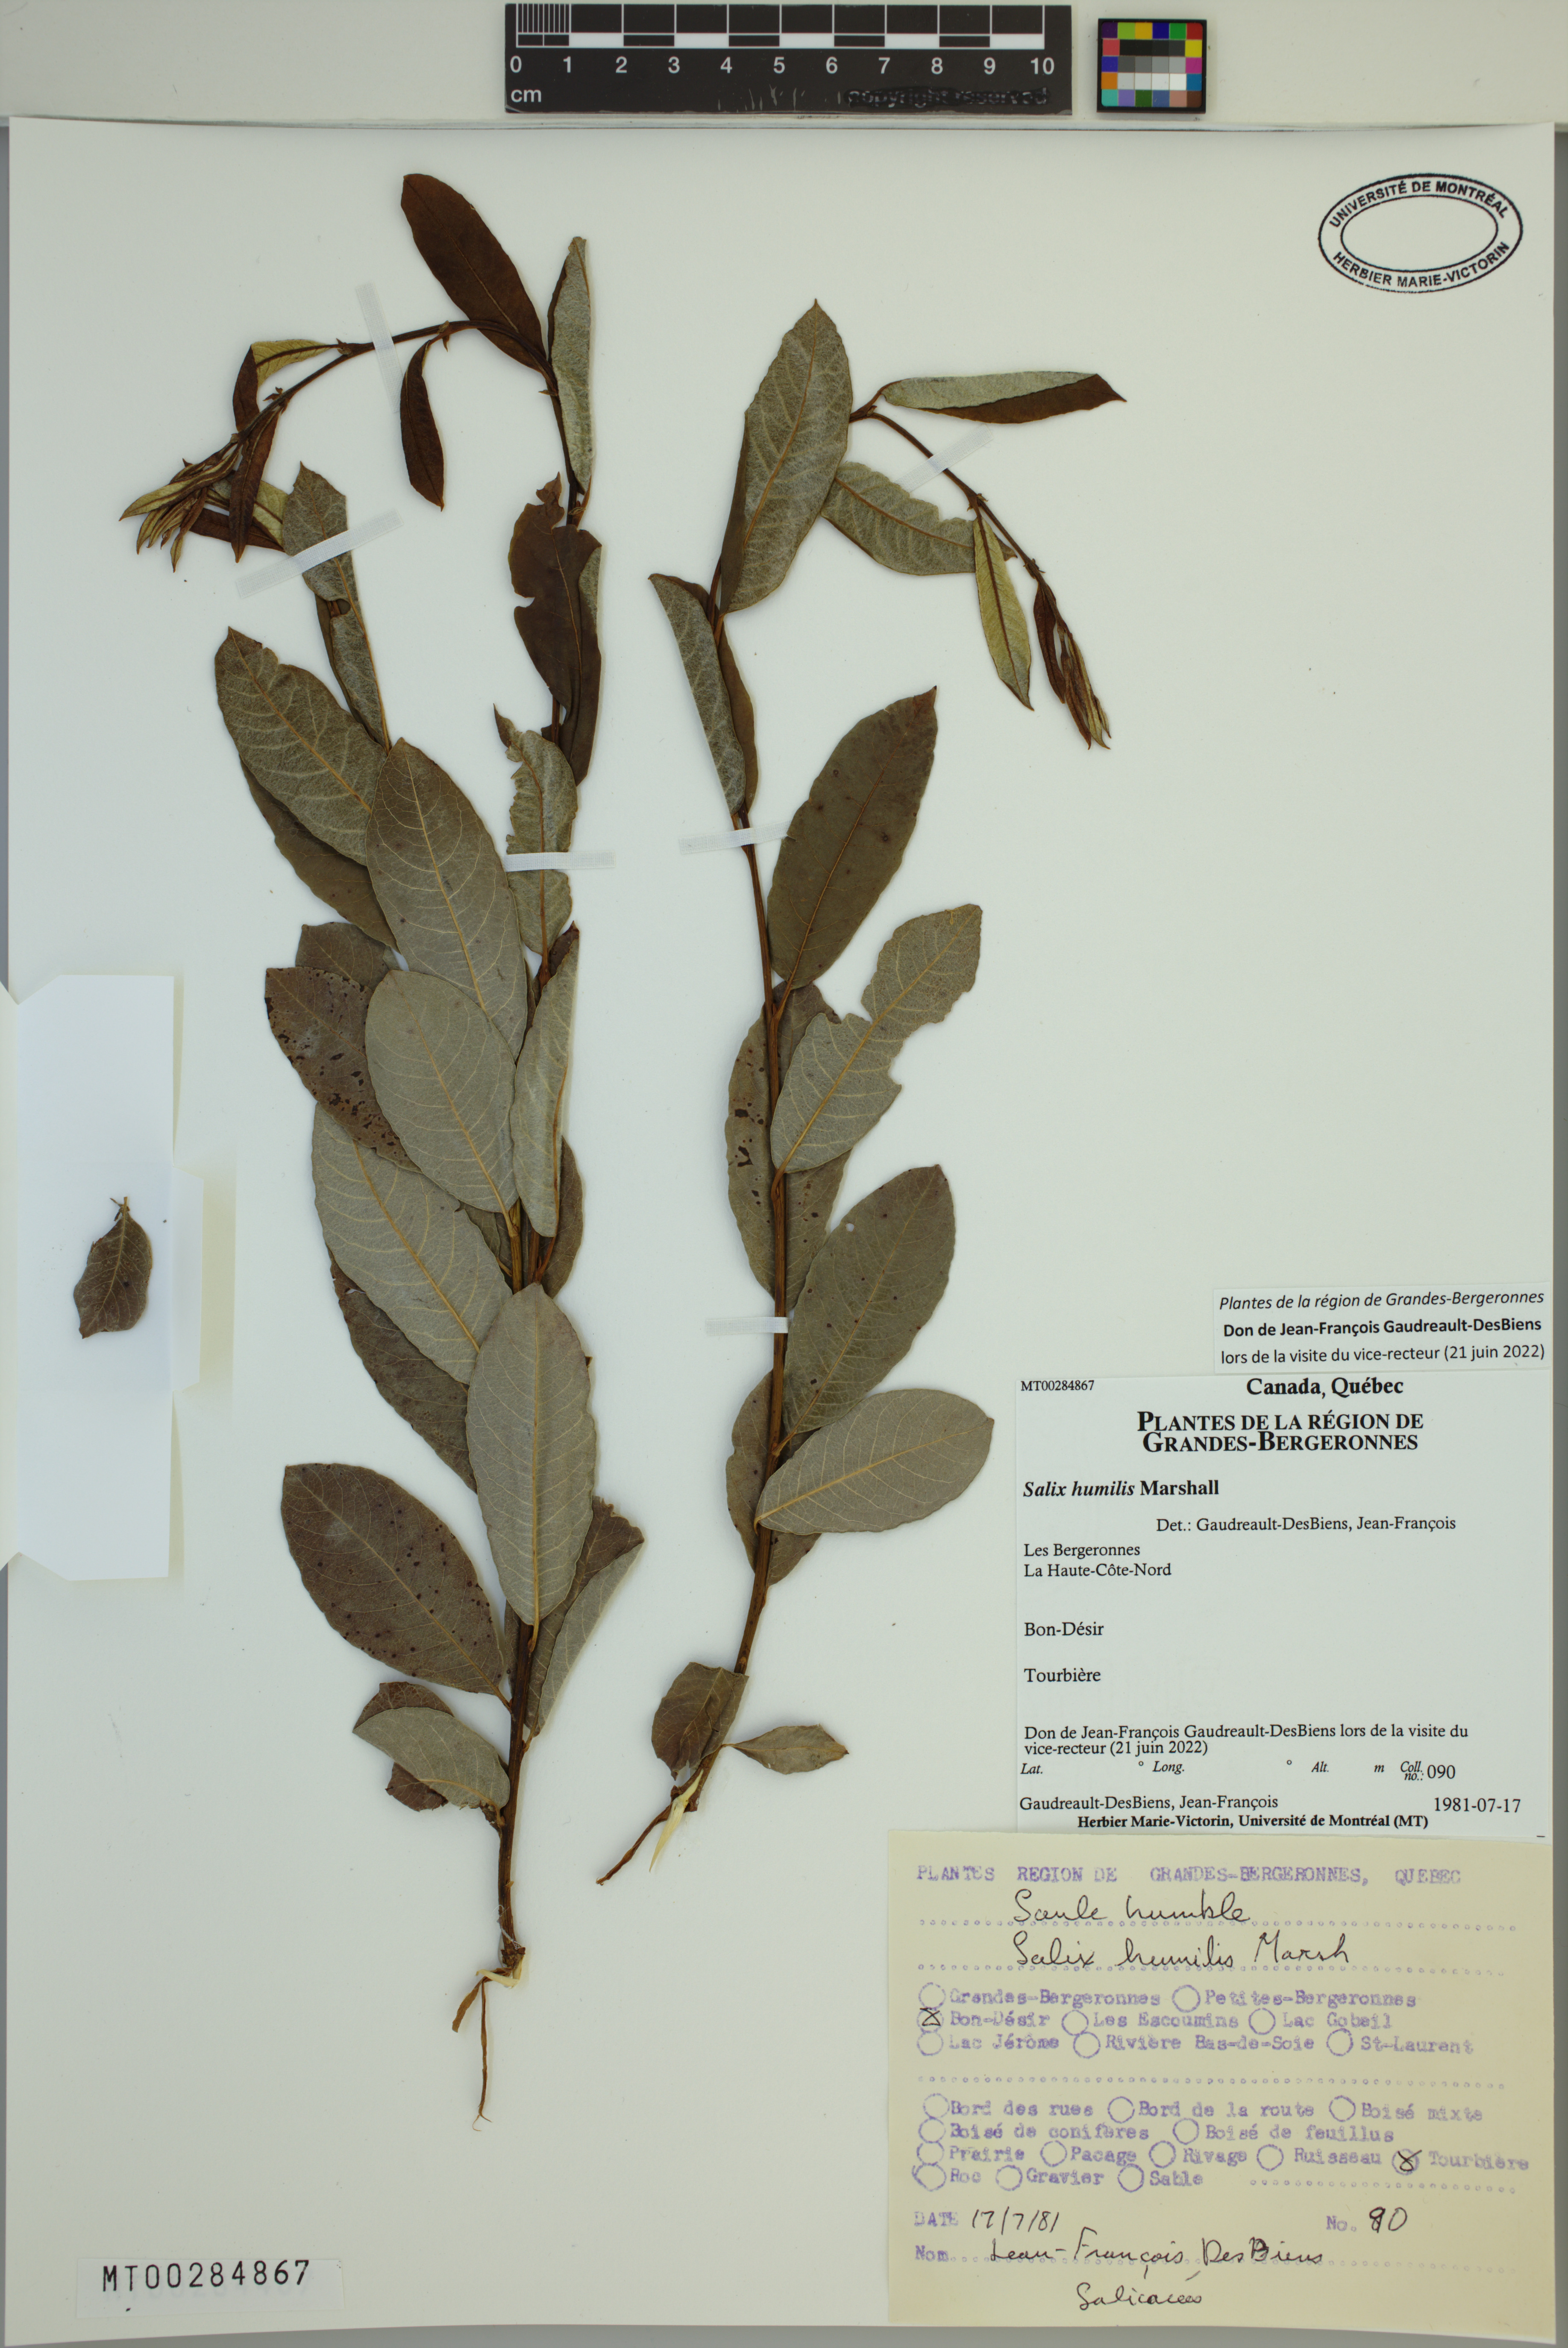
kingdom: Plantae
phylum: Tracheophyta
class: Magnoliopsida
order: Malpighiales
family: Salicaceae
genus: Salix
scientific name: Salix humilis
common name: Prairie willow
